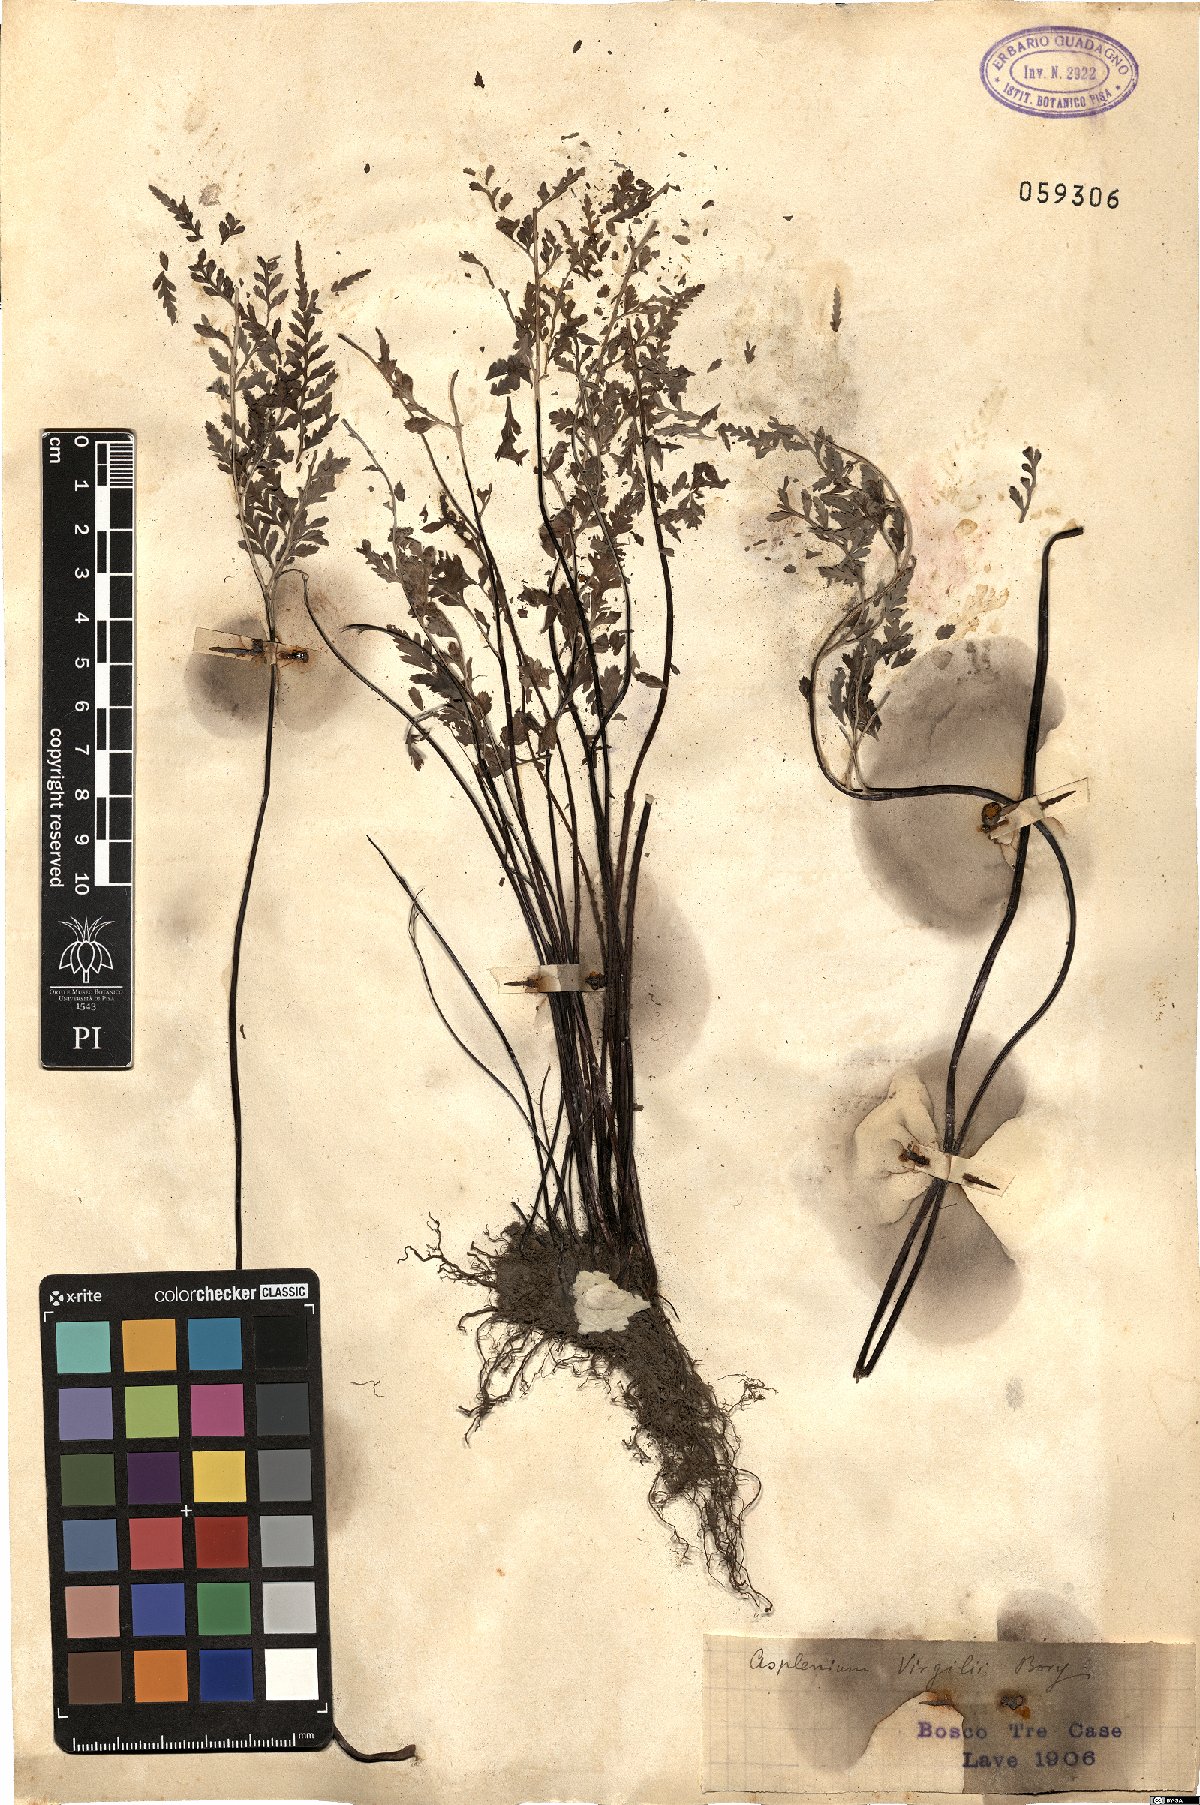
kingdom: Plantae
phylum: Tracheophyta
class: Polypodiopsida
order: Polypodiales
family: Aspleniaceae
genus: Asplenium
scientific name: Asplenium onopteris
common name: Irish spleenwort
